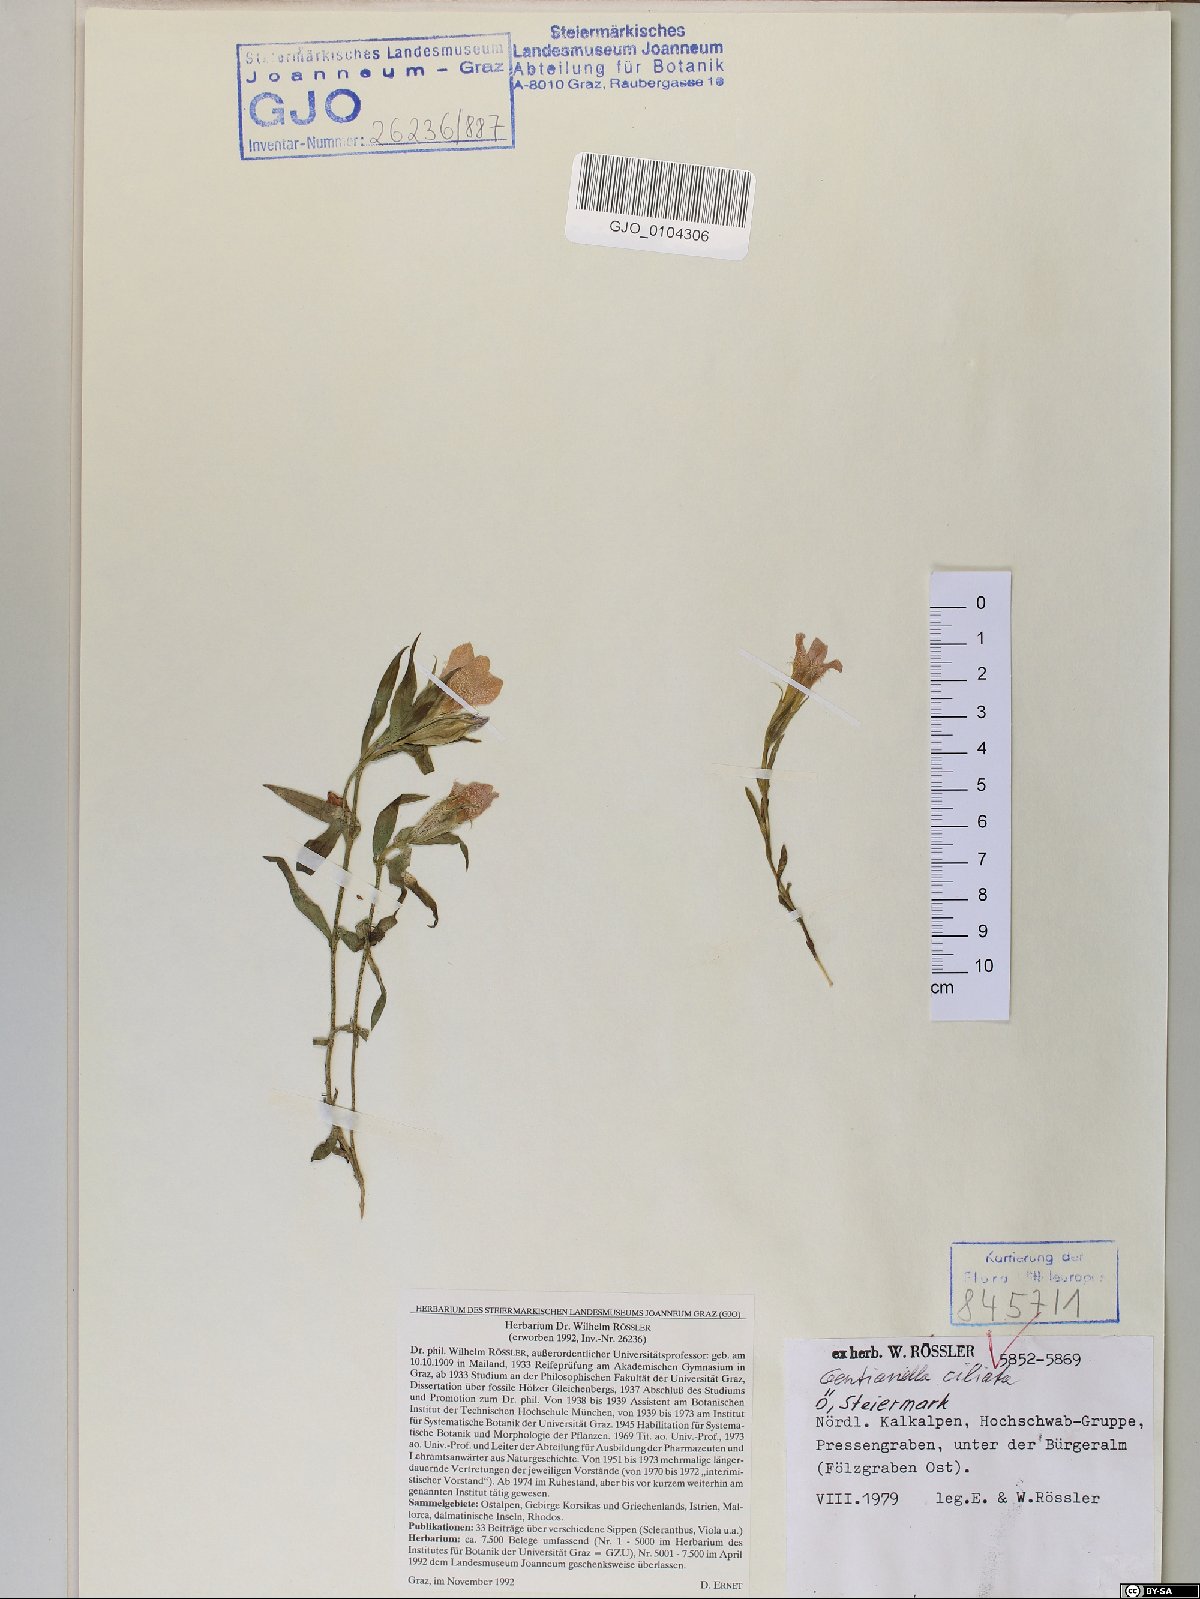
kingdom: Plantae
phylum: Tracheophyta
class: Magnoliopsida
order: Gentianales
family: Gentianaceae
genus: Gentianopsis
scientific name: Gentianopsis ciliata
